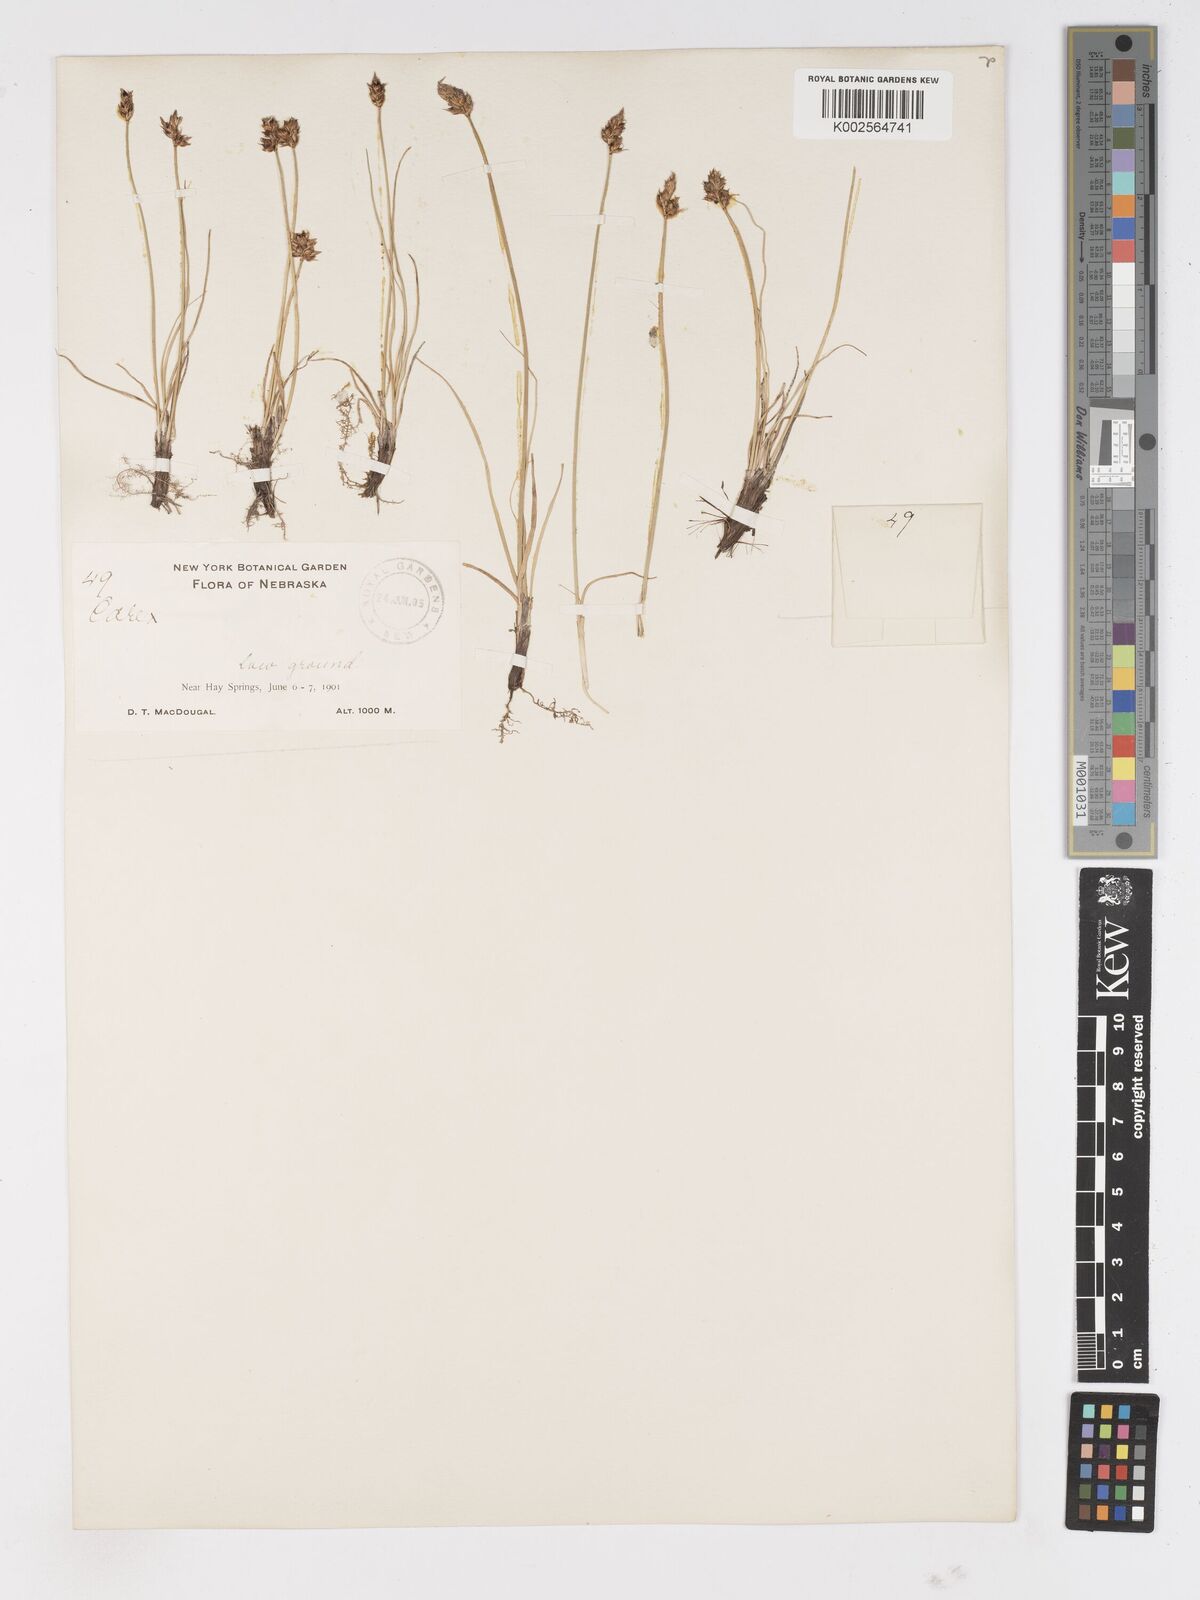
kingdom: Plantae
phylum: Tracheophyta
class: Liliopsida
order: Poales
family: Cyperaceae
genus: Carex
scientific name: Carex
